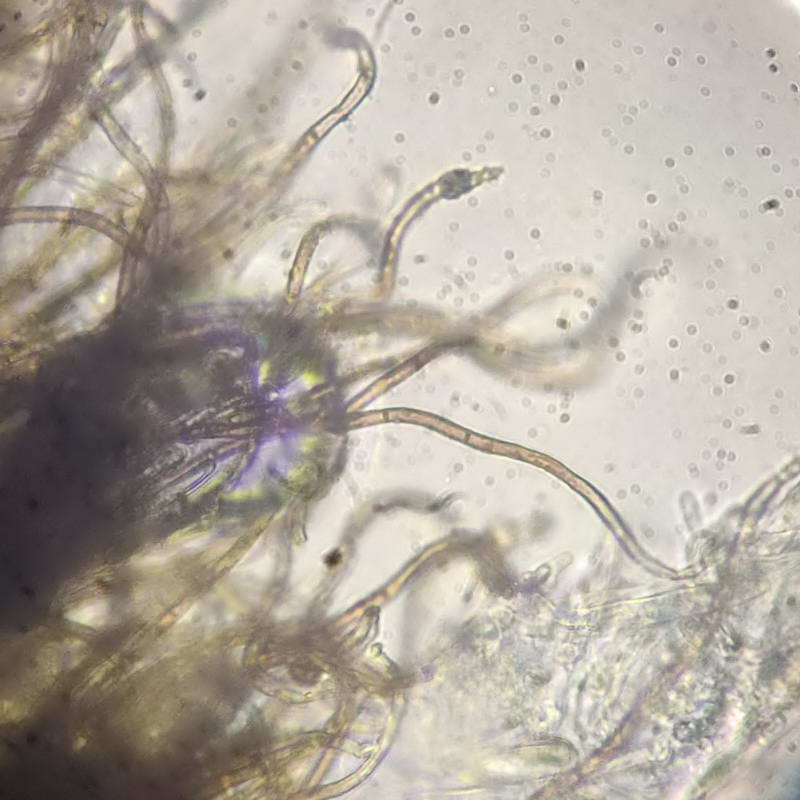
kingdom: Fungi
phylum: Ascomycota
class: Leotiomycetes
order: Helotiales
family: Solenopeziaceae
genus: Lasiobelonium
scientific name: Lasiobelonium variegatum
